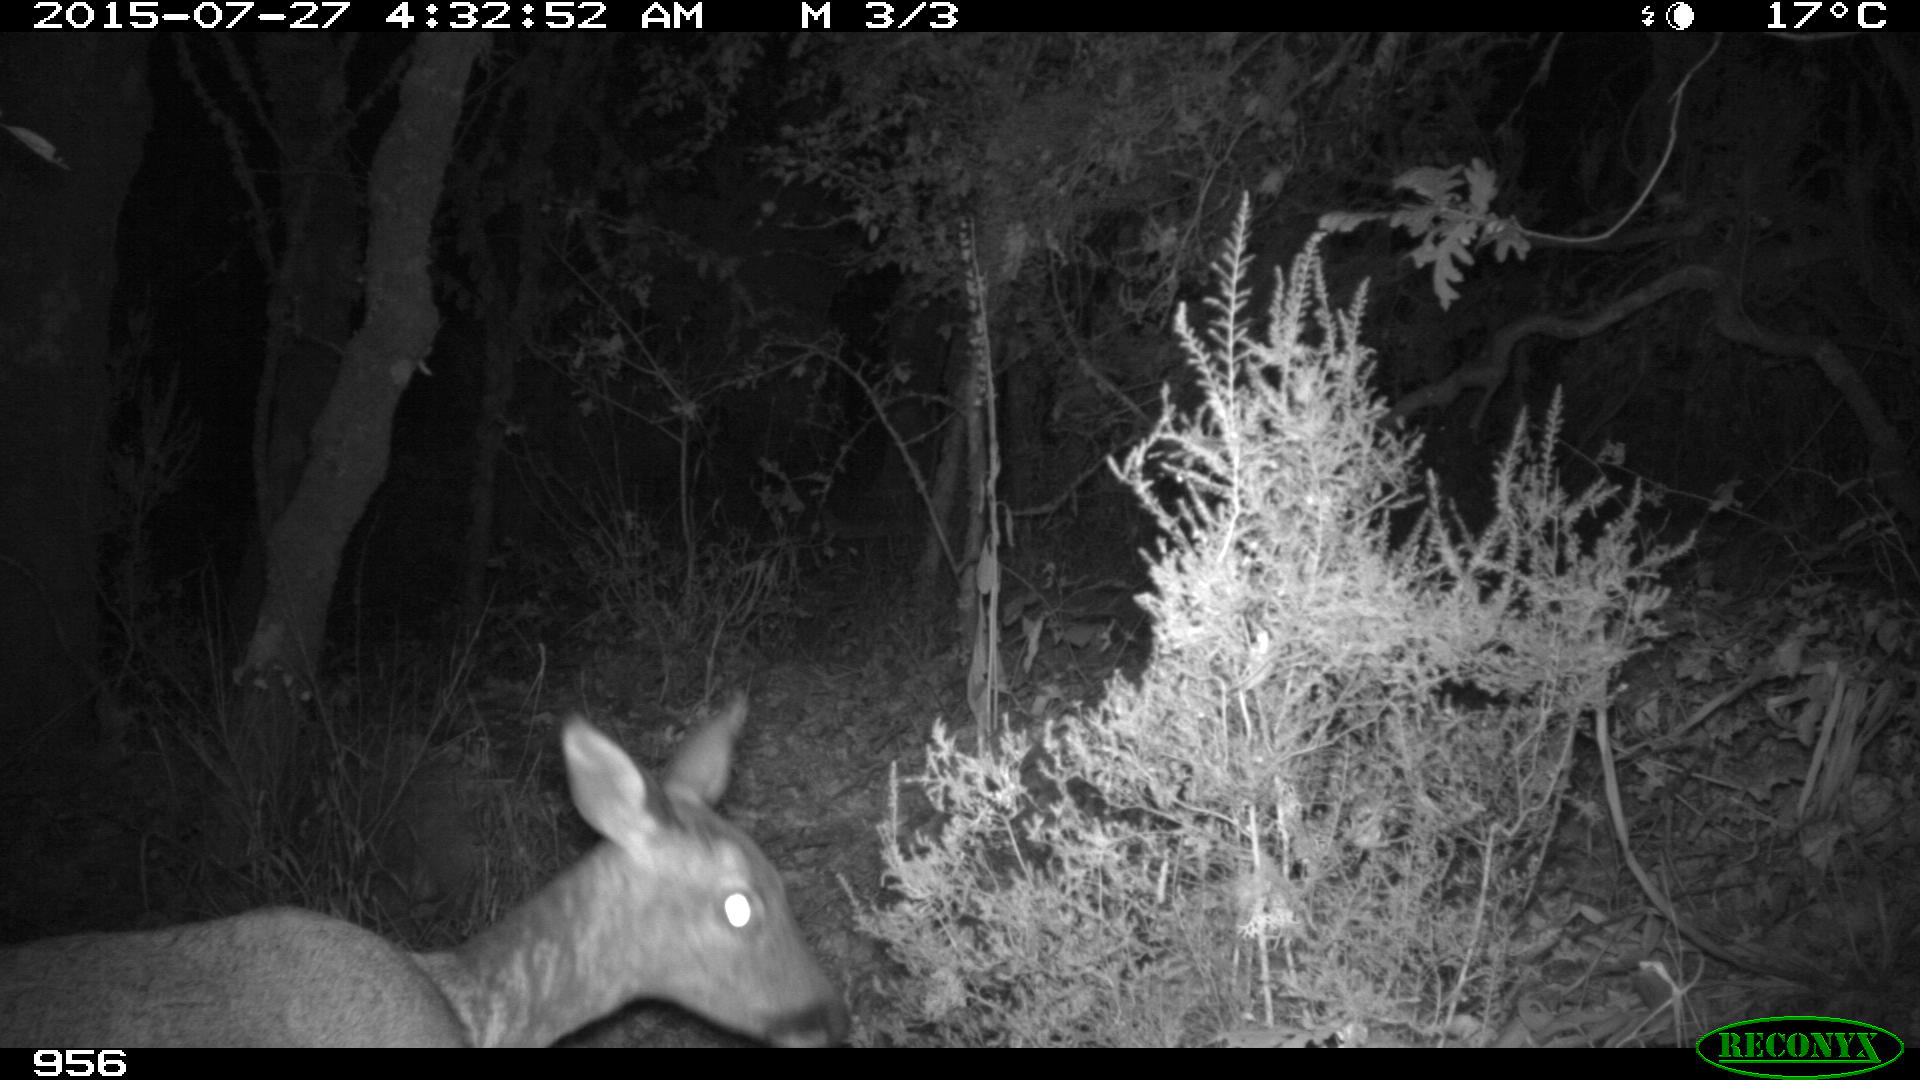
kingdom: Animalia
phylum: Chordata
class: Mammalia
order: Artiodactyla
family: Cervidae
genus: Capreolus
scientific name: Capreolus capreolus
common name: Western roe deer
